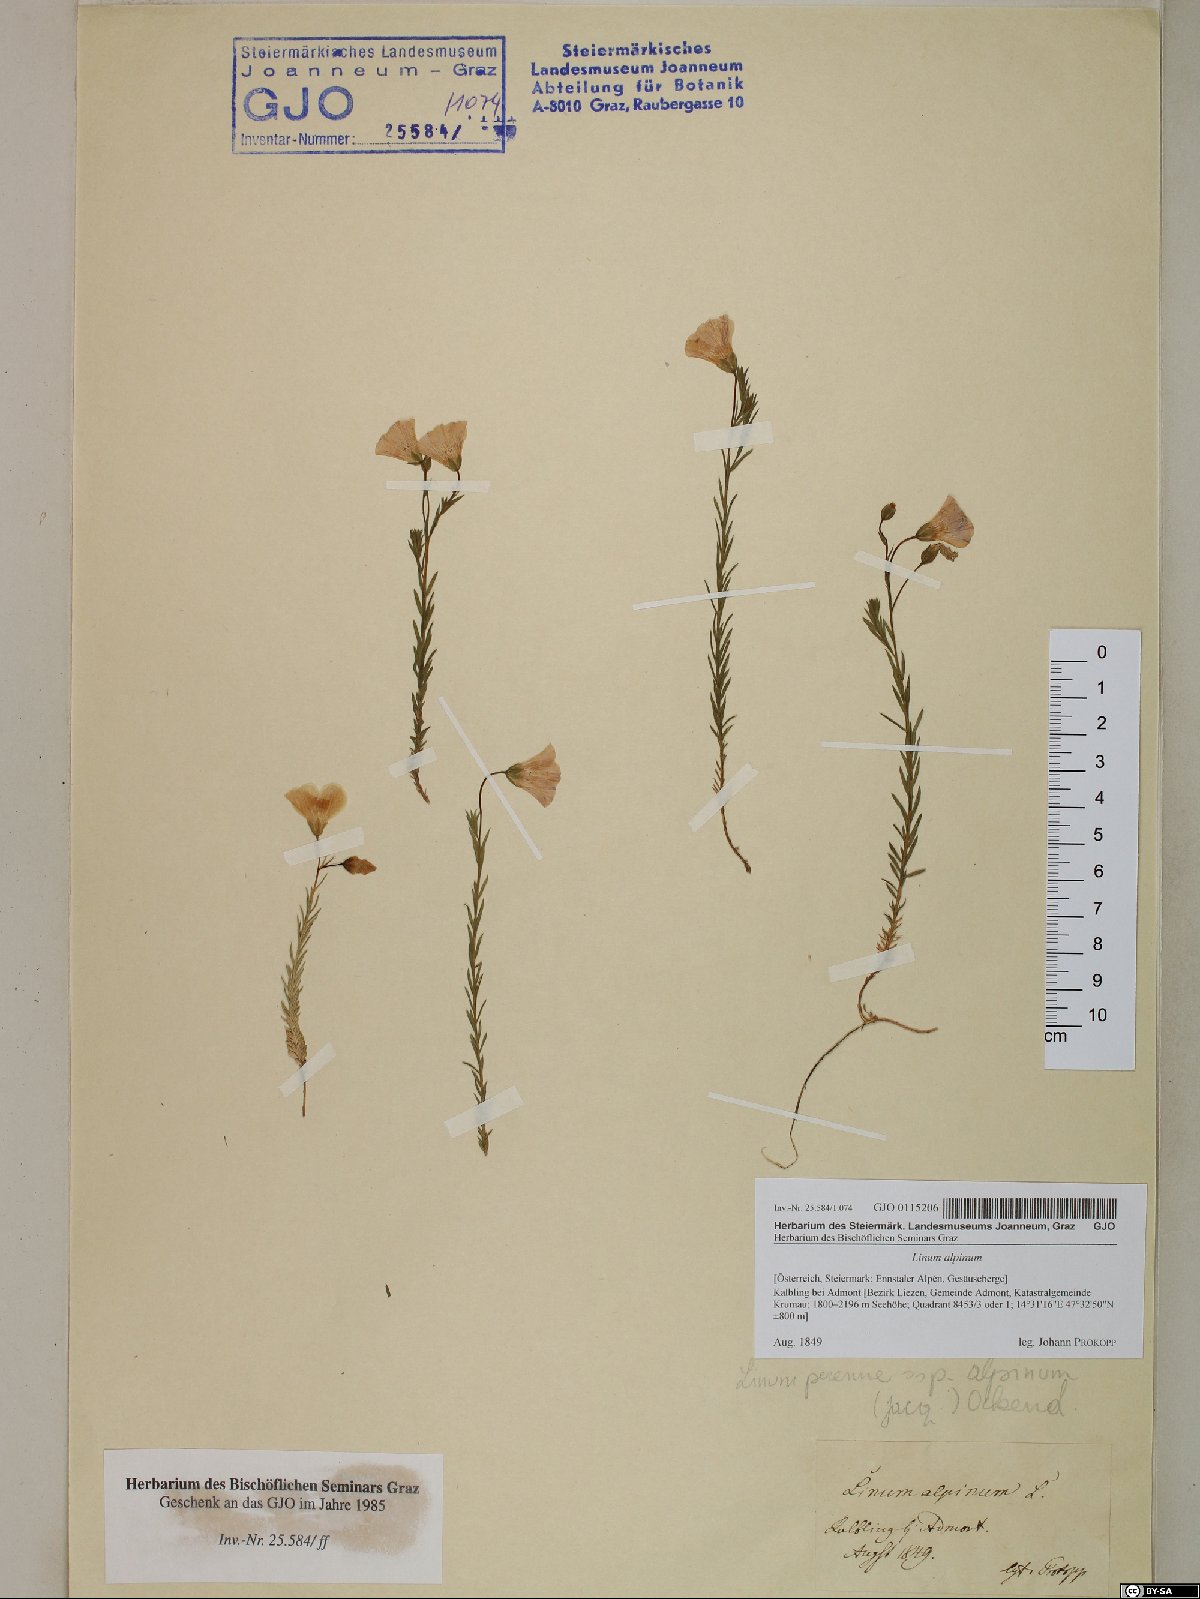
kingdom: Plantae
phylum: Tracheophyta
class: Magnoliopsida
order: Malpighiales
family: Linaceae
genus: Linum
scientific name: Linum alpinum
